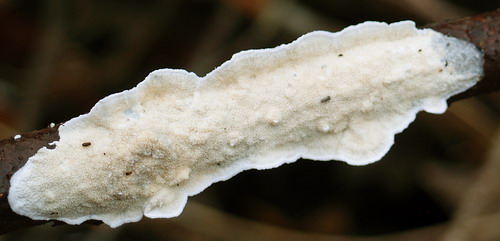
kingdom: Fungi
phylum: Basidiomycota
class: Agaricomycetes
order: Polyporales
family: Irpicaceae
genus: Byssomerulius
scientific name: Byssomerulius corium
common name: læder-åresvamp
